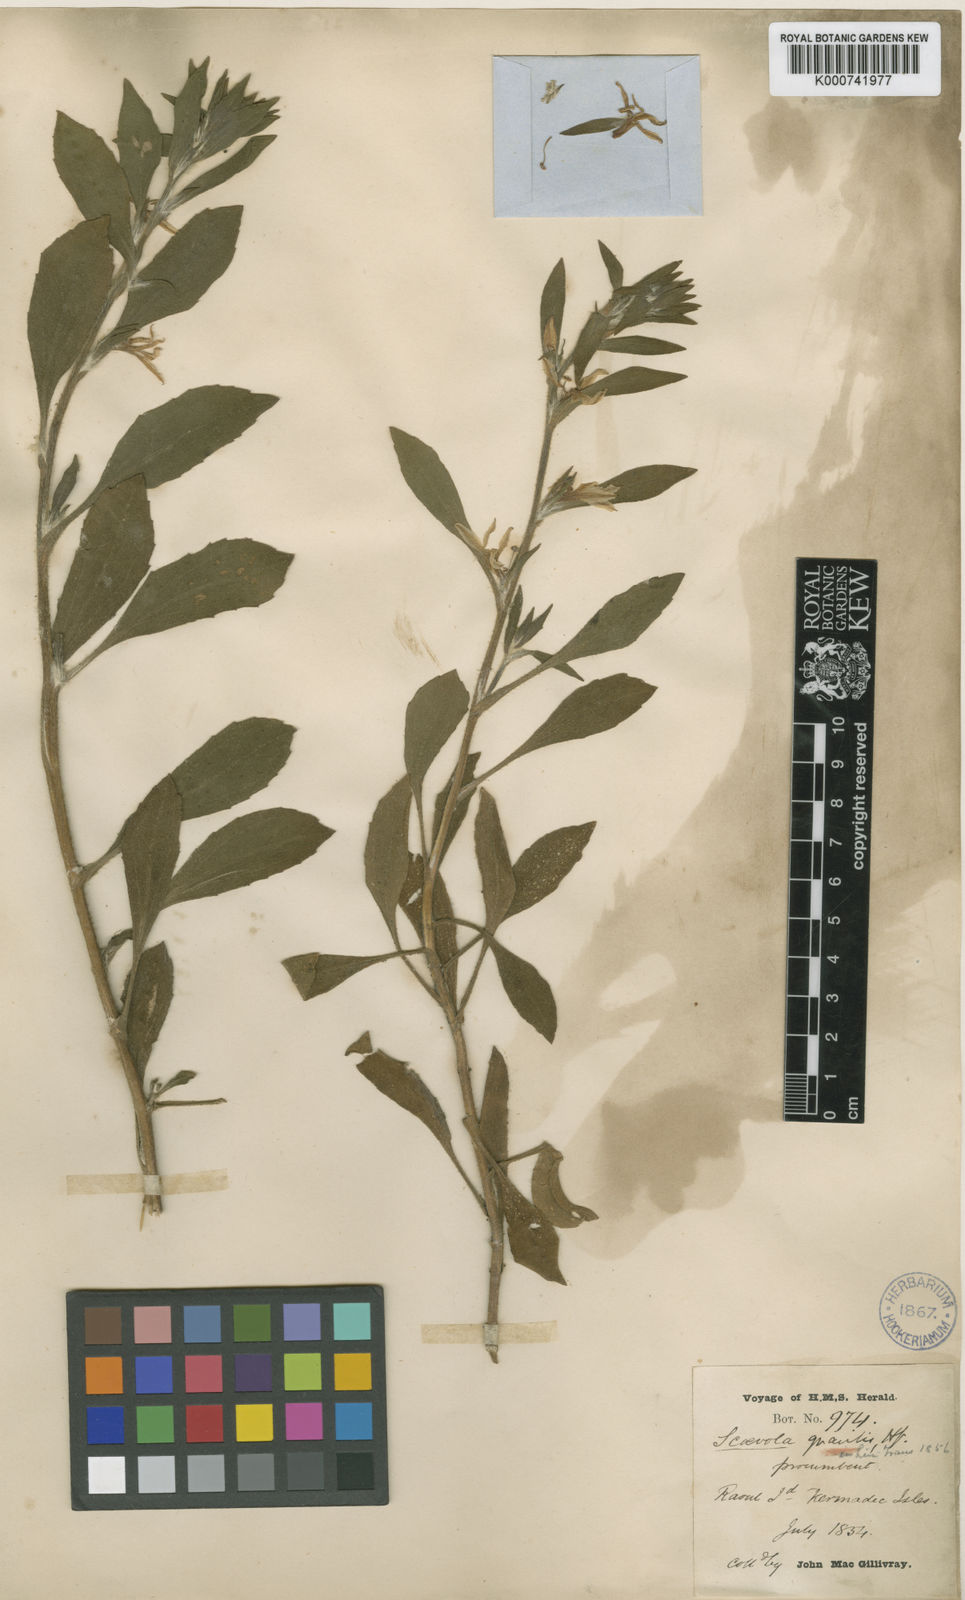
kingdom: Plantae
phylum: Tracheophyta
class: Magnoliopsida
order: Asterales
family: Goodeniaceae
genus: Scaevola
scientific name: Scaevola gracilis
